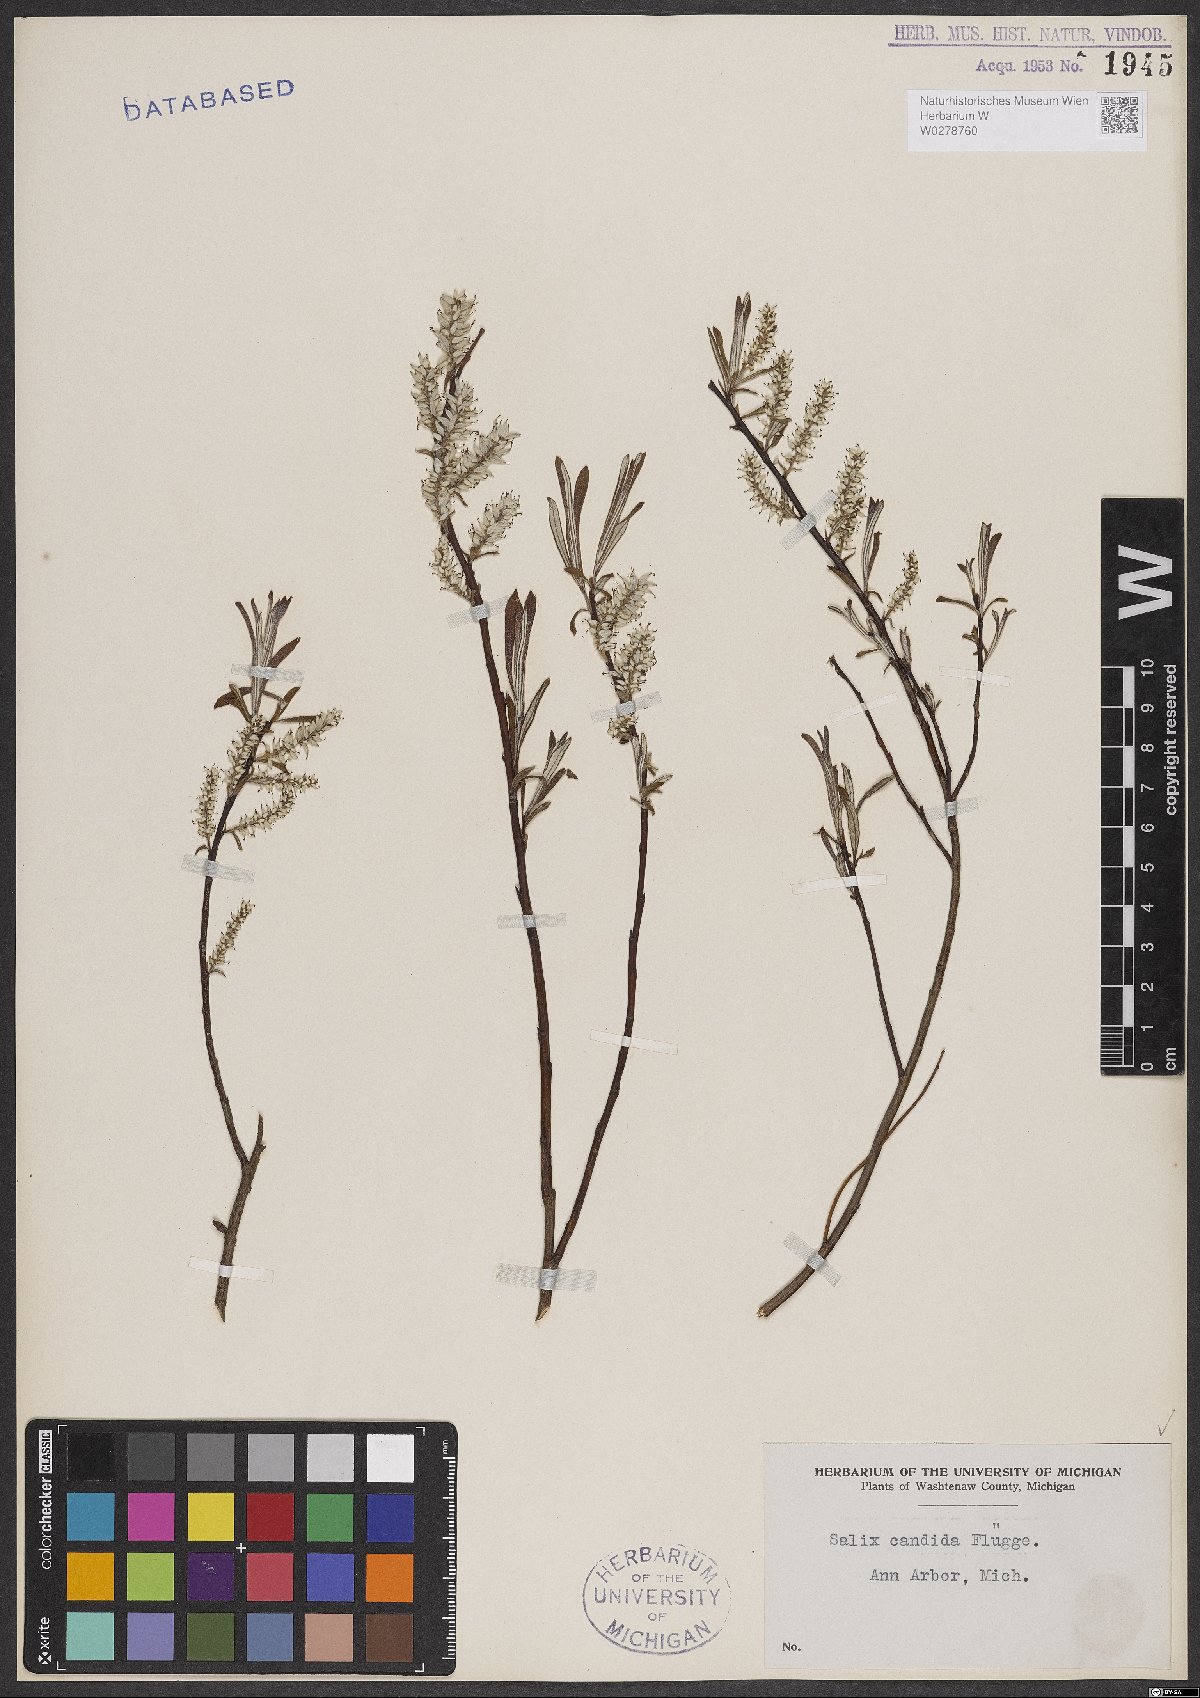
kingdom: Plantae
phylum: Tracheophyta
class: Magnoliopsida
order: Malpighiales
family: Salicaceae
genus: Salix
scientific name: Salix candida
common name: Hoary willow
